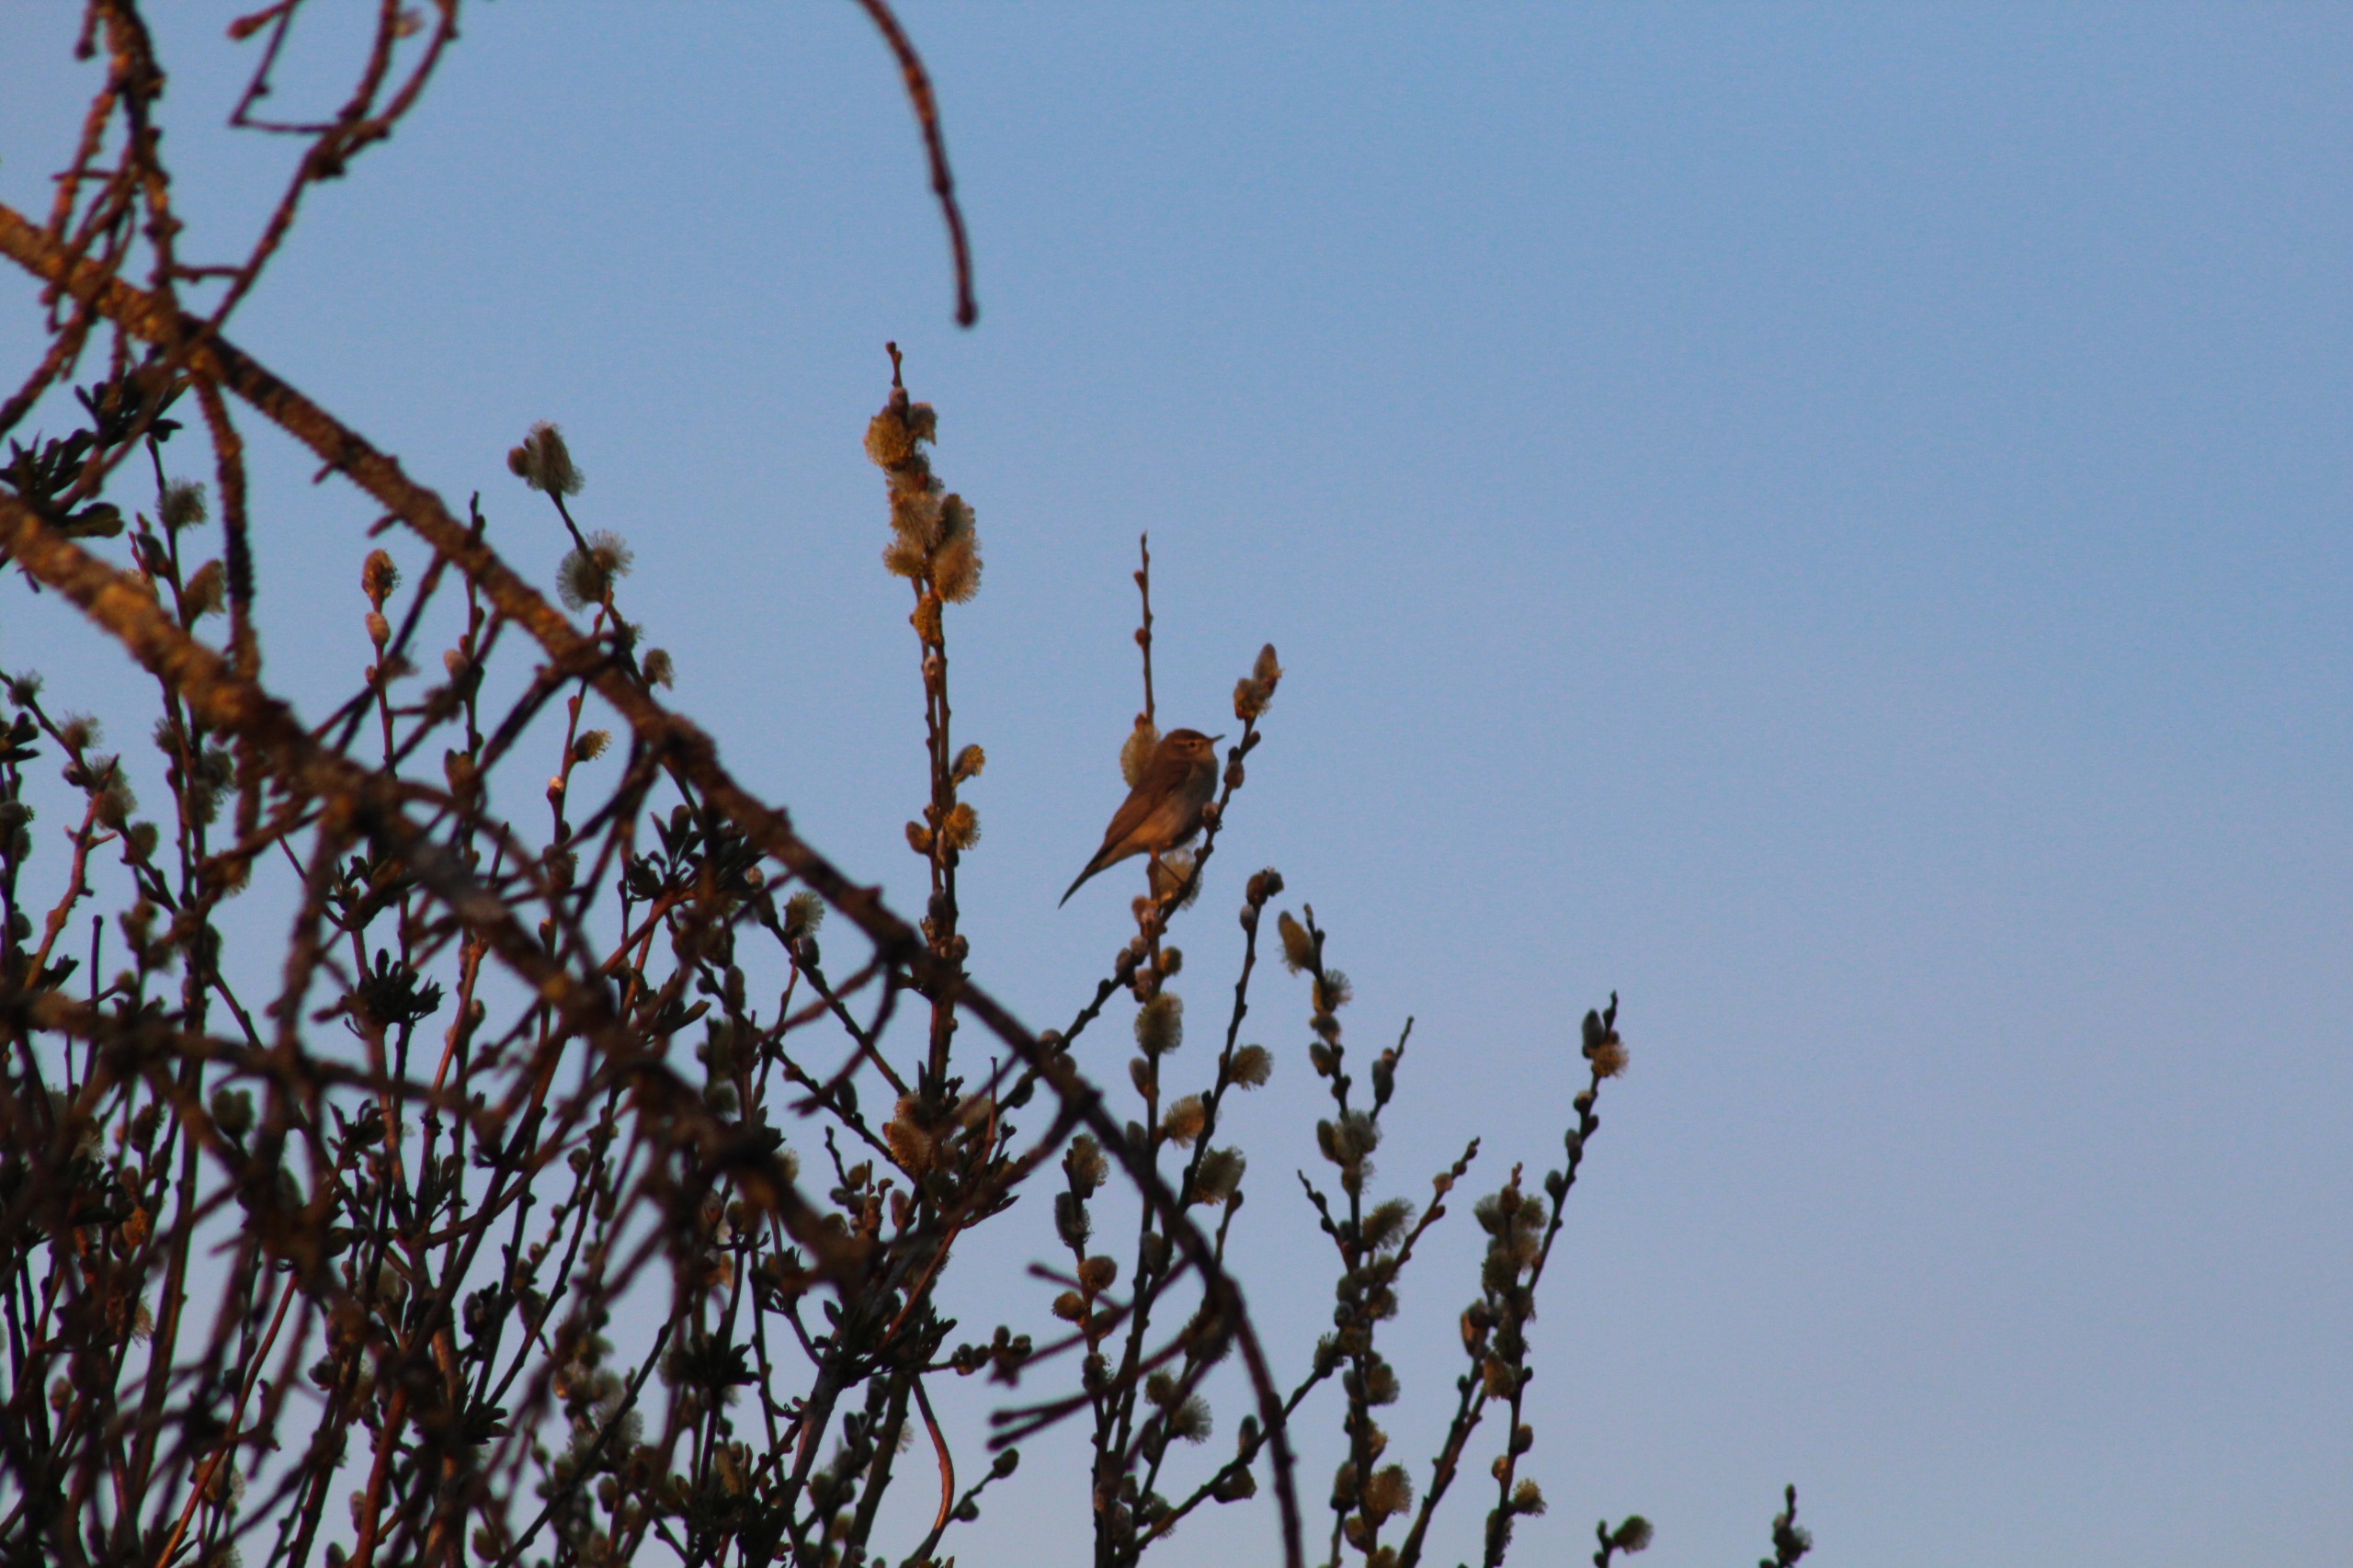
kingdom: Animalia
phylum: Chordata
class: Aves
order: Passeriformes
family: Phylloscopidae
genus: Phylloscopus
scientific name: Phylloscopus collybita
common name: Gransanger
